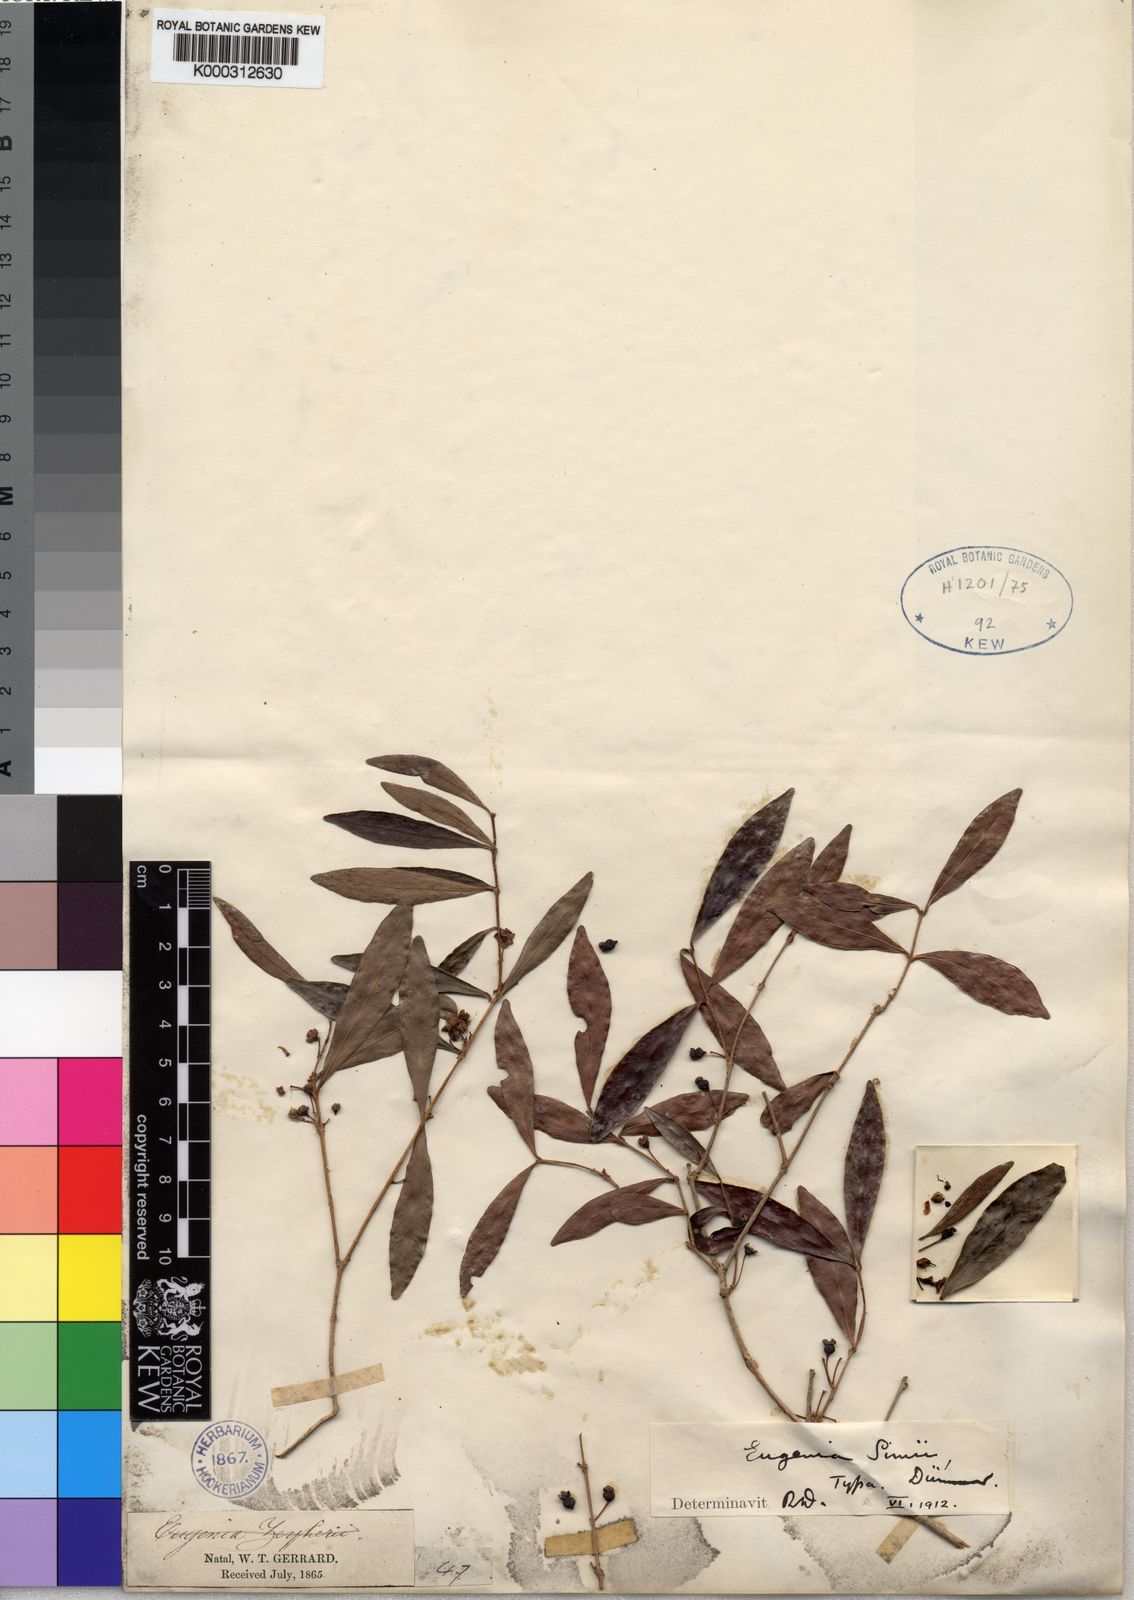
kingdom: Plantae
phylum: Tracheophyta
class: Magnoliopsida
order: Myrtales
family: Myrtaceae
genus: Eugenia
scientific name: Eugenia simii
